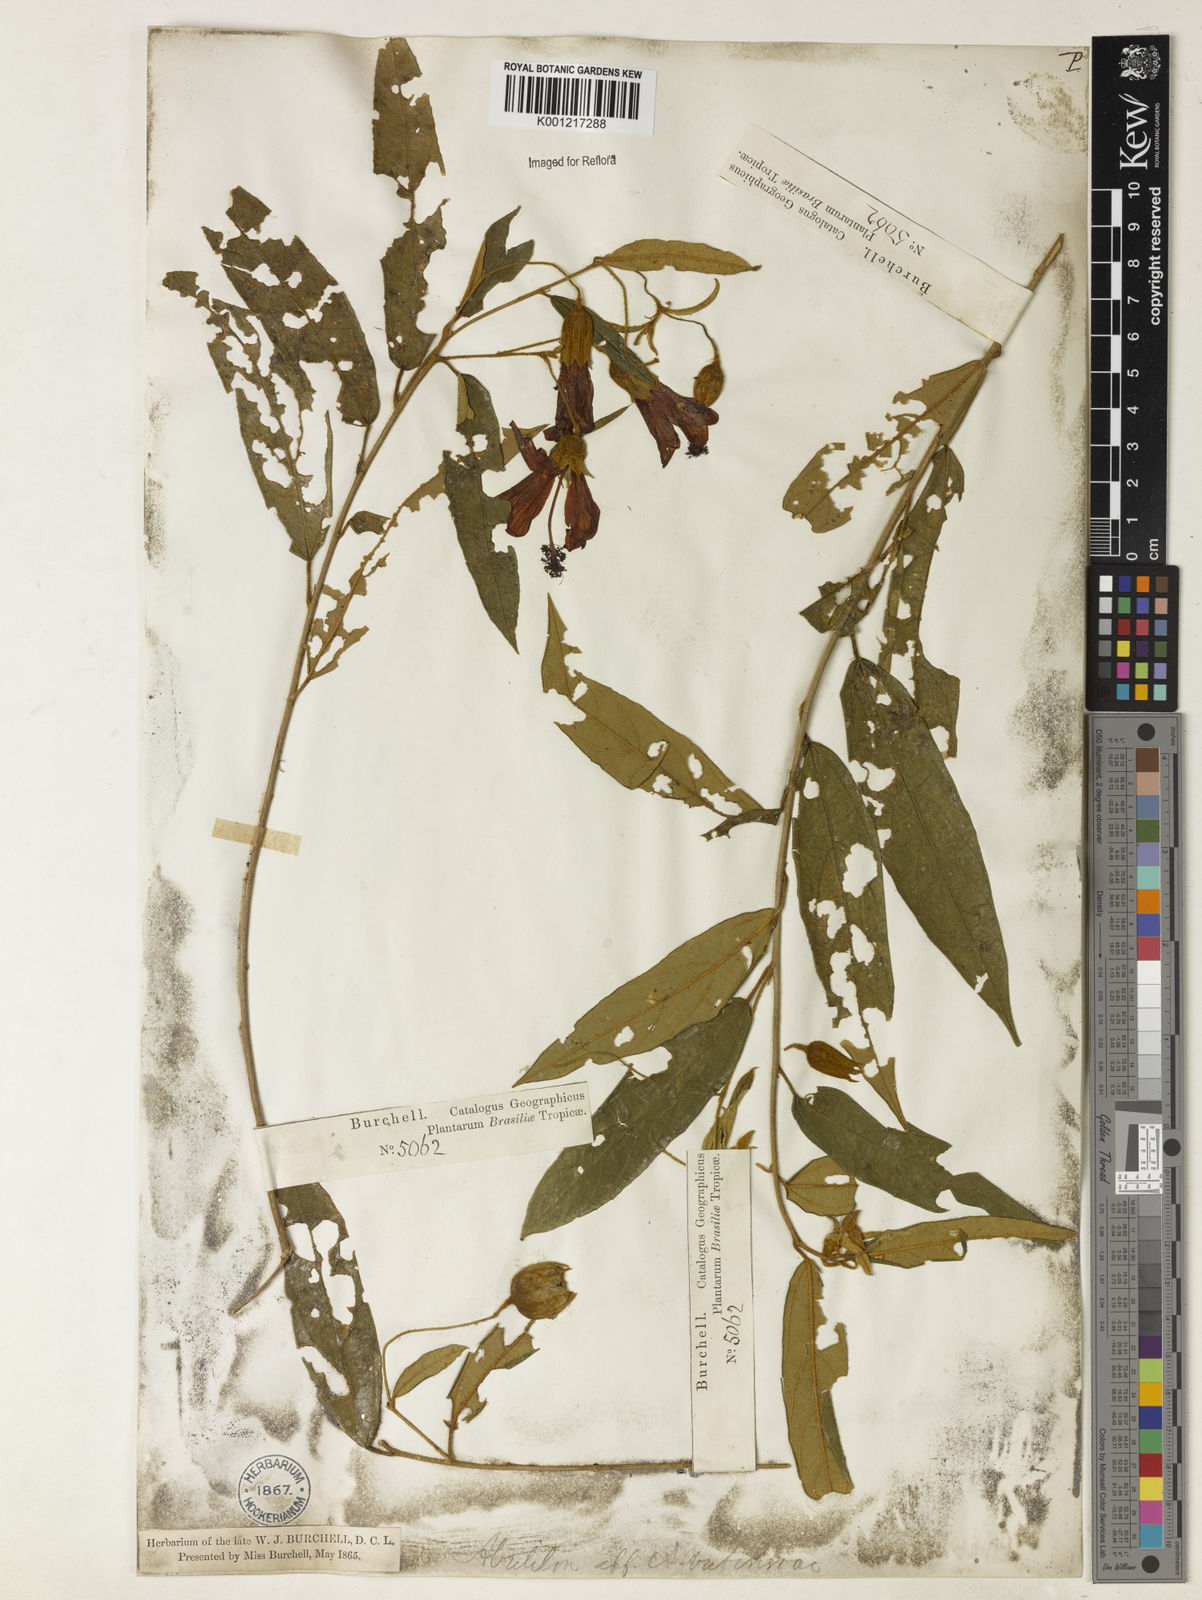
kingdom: Plantae
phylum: Tracheophyta
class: Magnoliopsida
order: Malvales
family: Malvaceae
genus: Callianthe
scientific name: Callianthe longifolia
